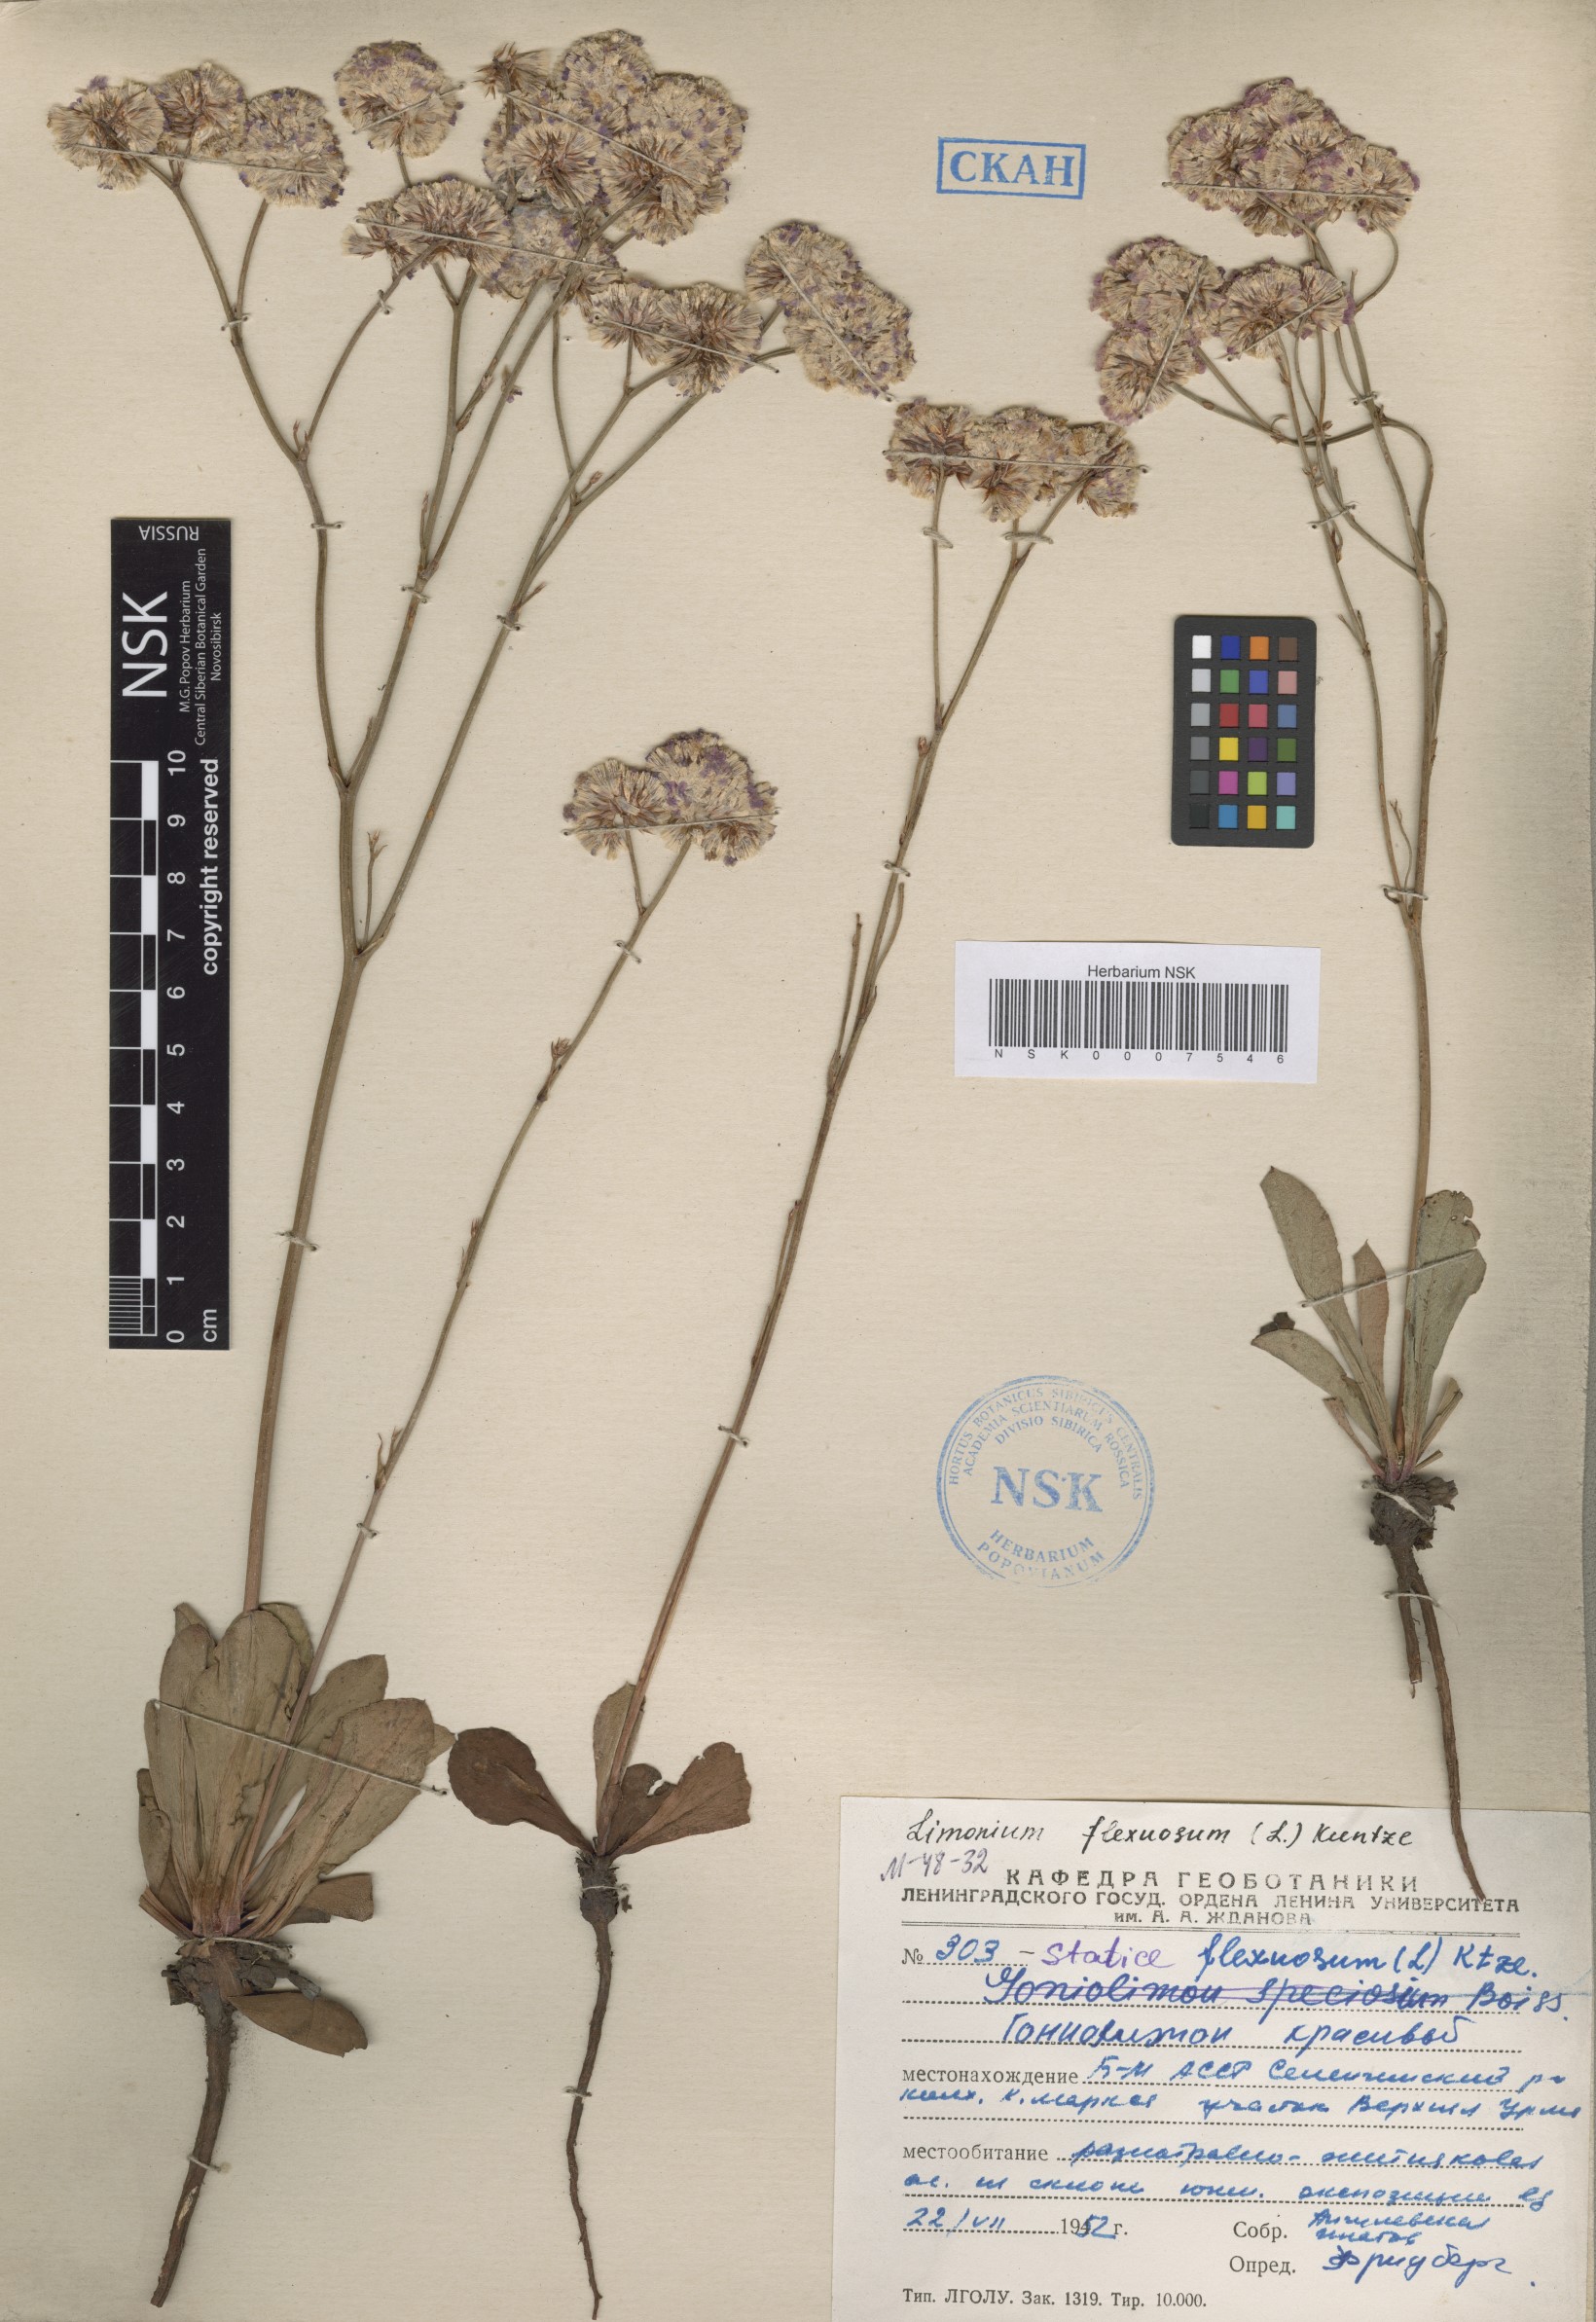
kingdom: Plantae
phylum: Tracheophyta
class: Magnoliopsida
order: Caryophyllales
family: Plumbaginaceae
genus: Limonium
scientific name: Limonium flexuosum
